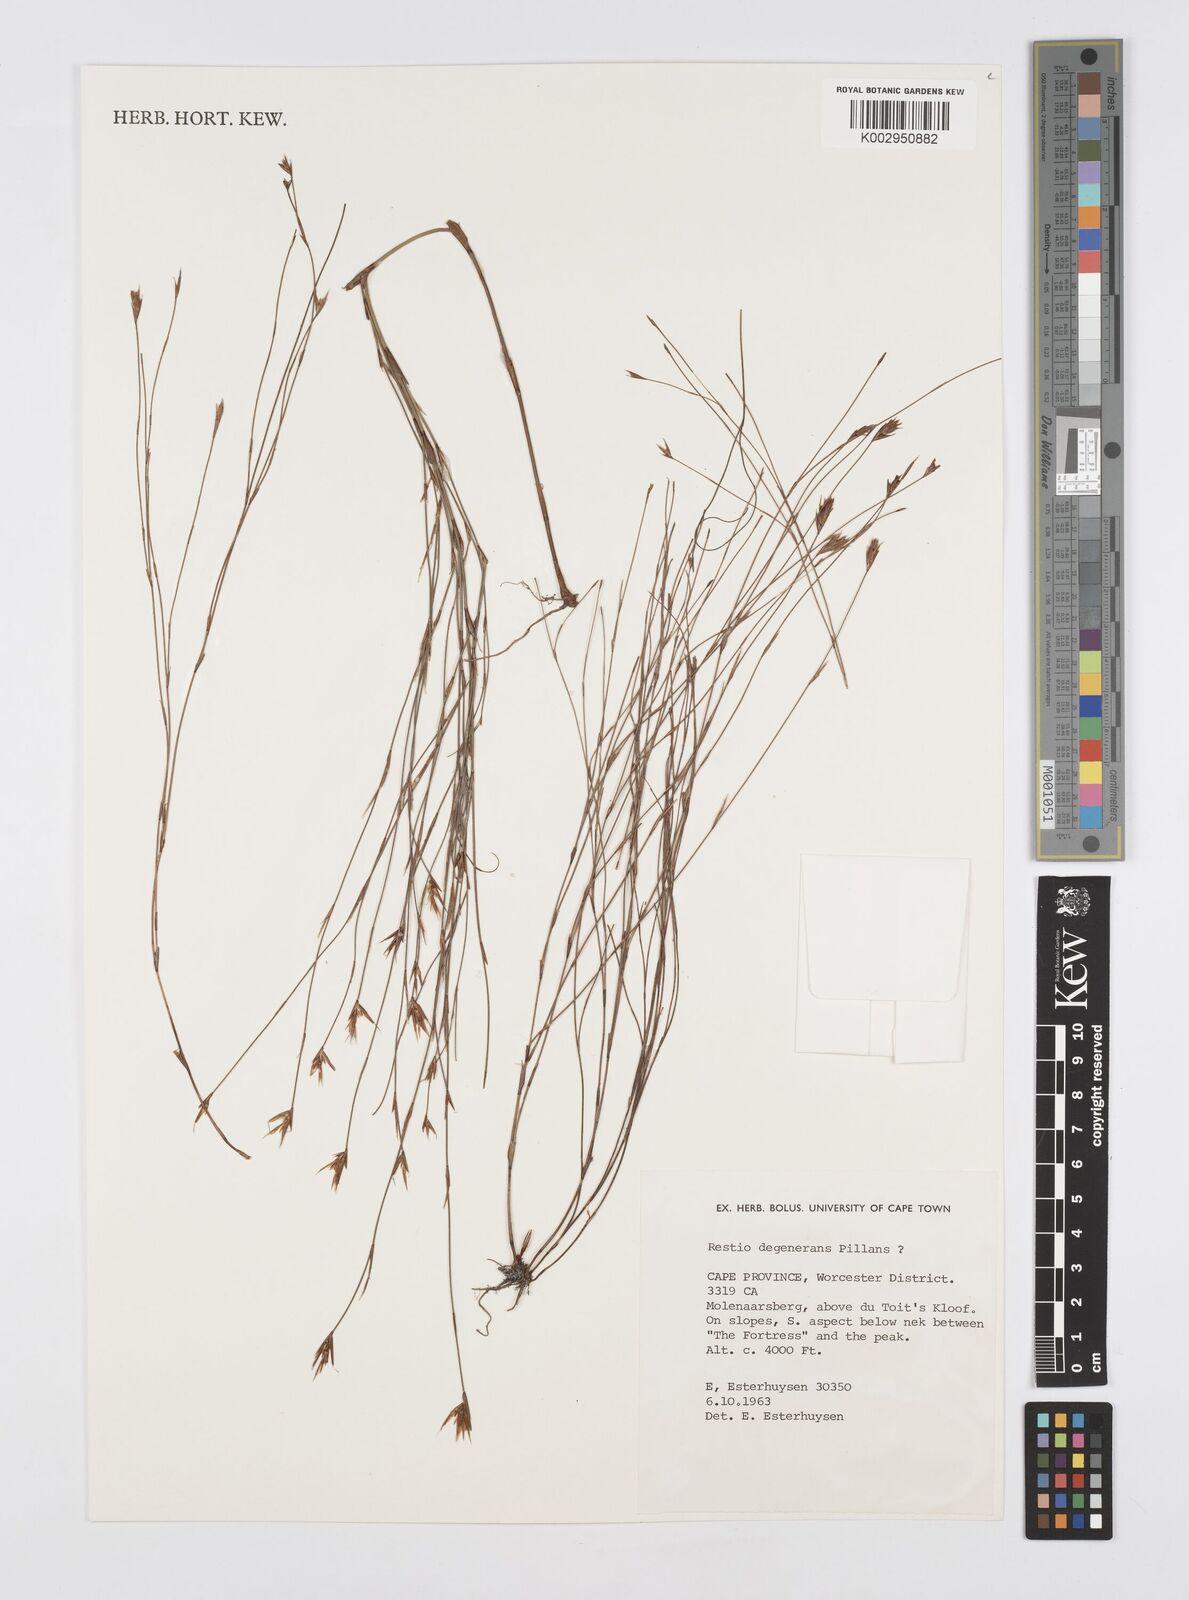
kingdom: Plantae
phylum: Tracheophyta
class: Liliopsida
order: Poales
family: Restionaceae
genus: Restio
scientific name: Restio degenerans
